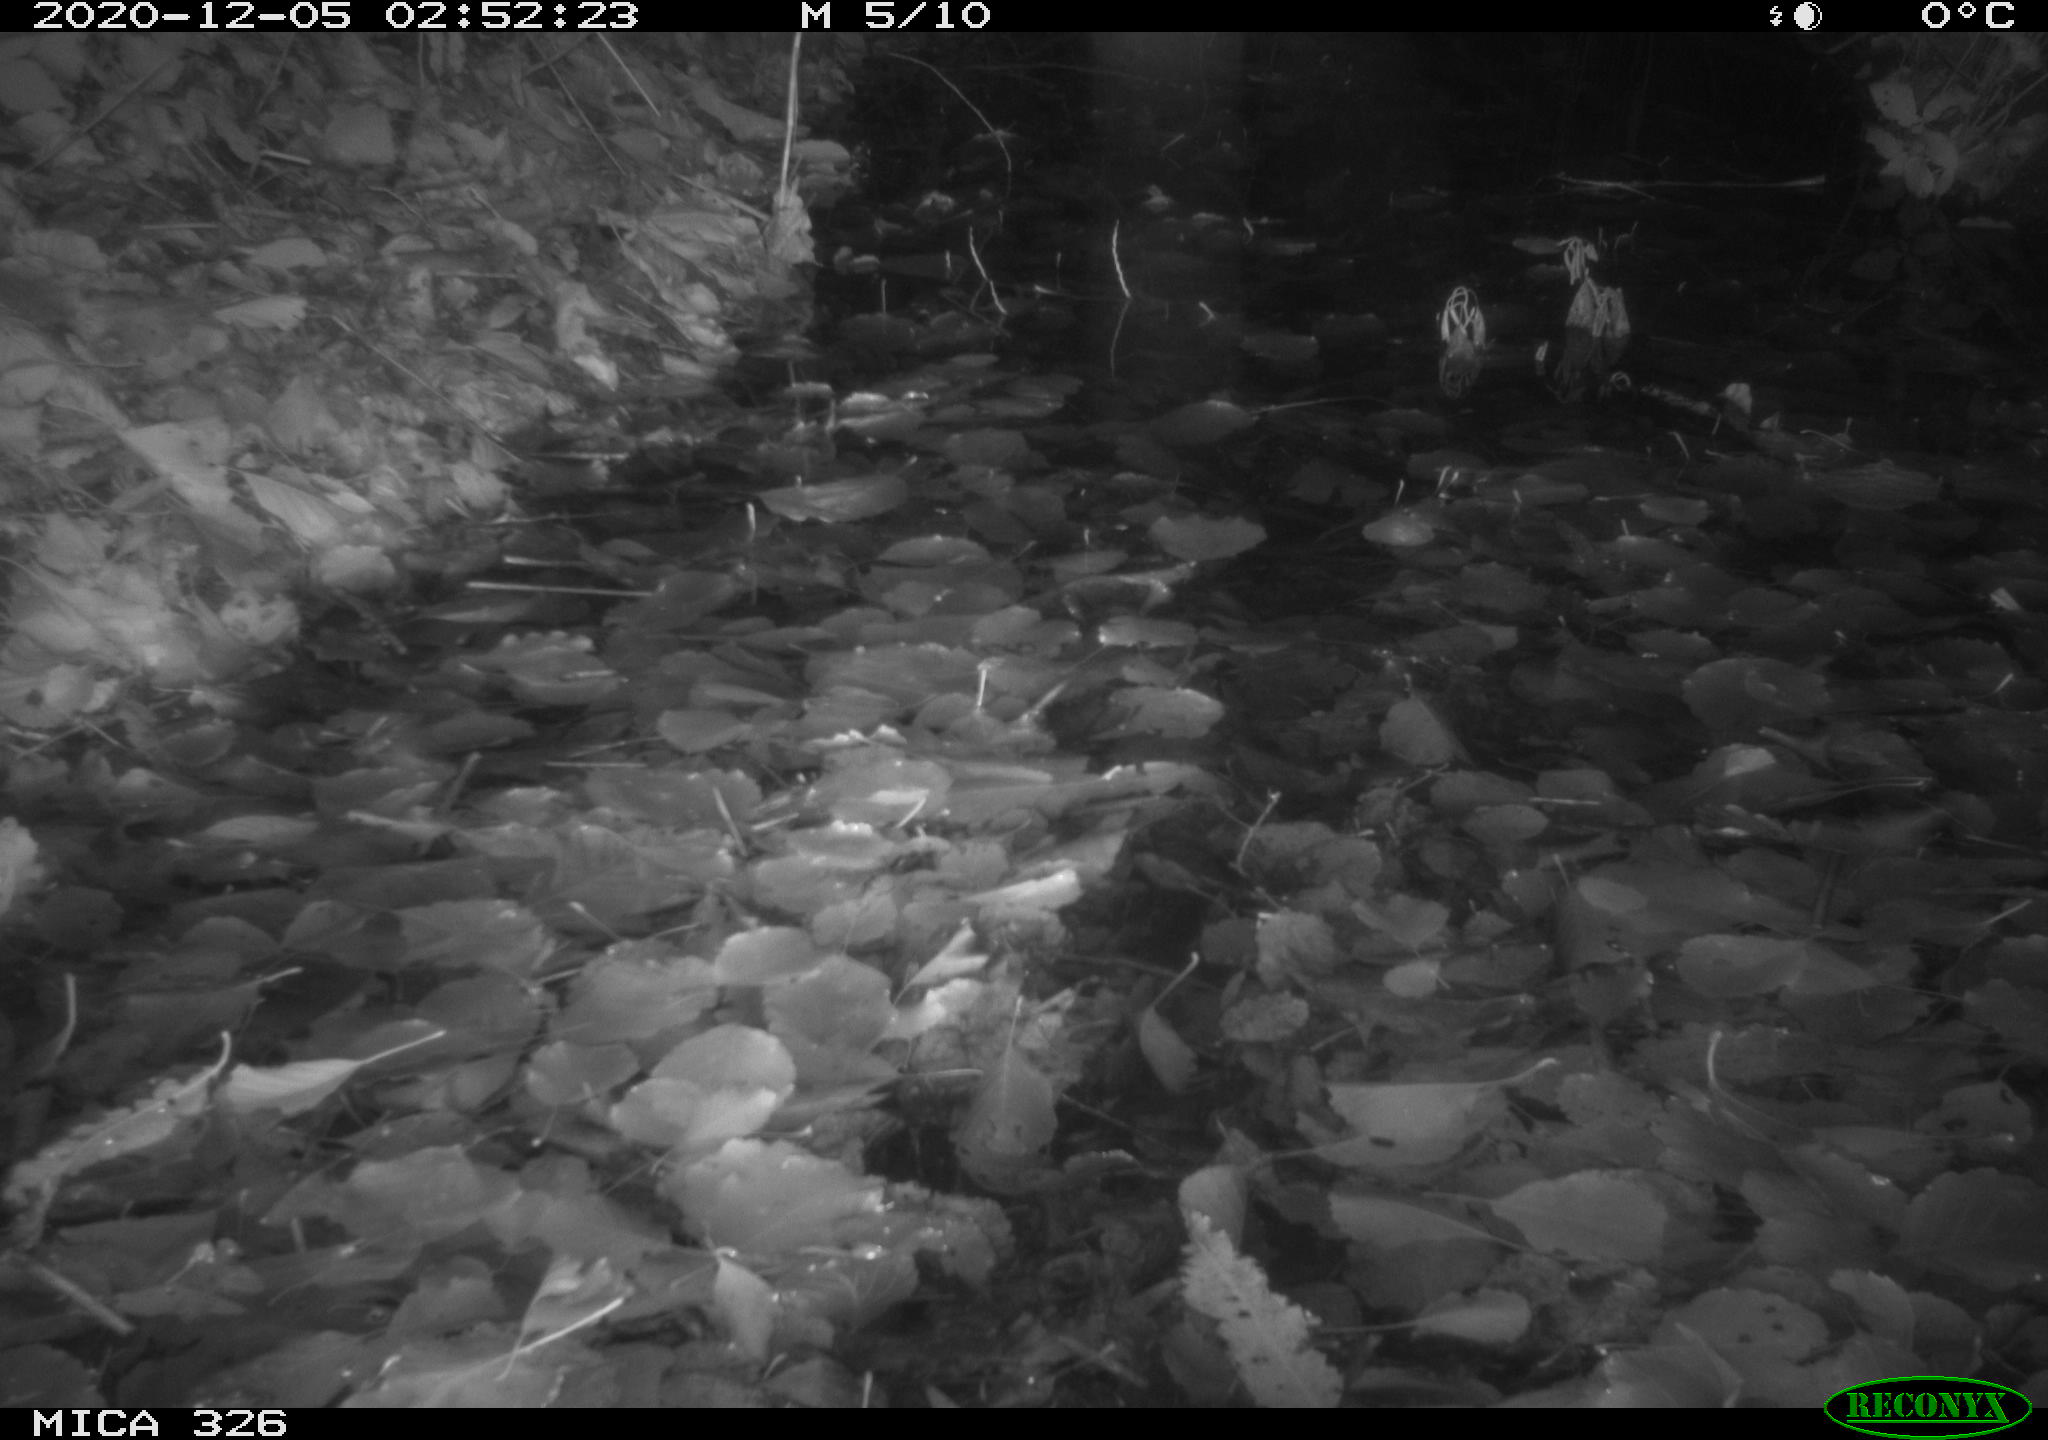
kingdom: Animalia
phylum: Chordata
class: Mammalia
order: Rodentia
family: Muridae
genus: Rattus
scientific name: Rattus norvegicus
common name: Brown rat
